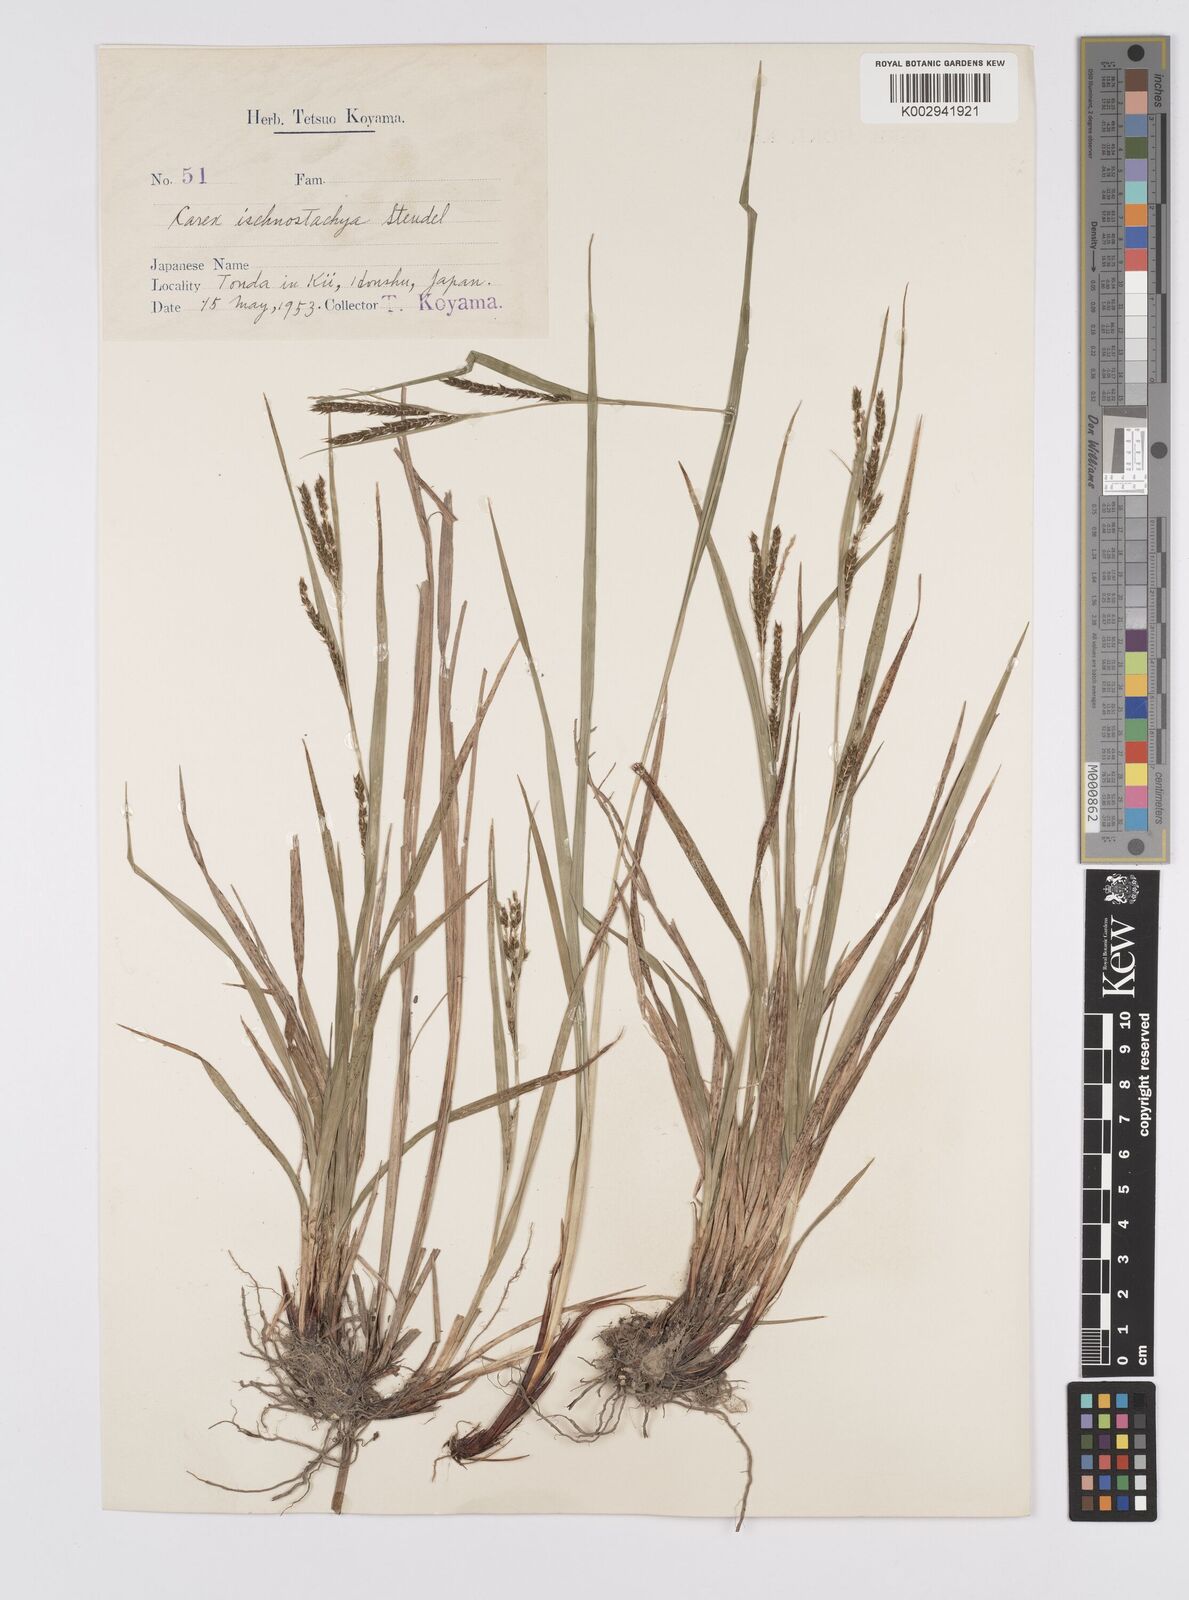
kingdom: Plantae
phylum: Tracheophyta
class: Liliopsida
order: Poales
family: Cyperaceae
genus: Carex
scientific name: Carex ischnostachya
